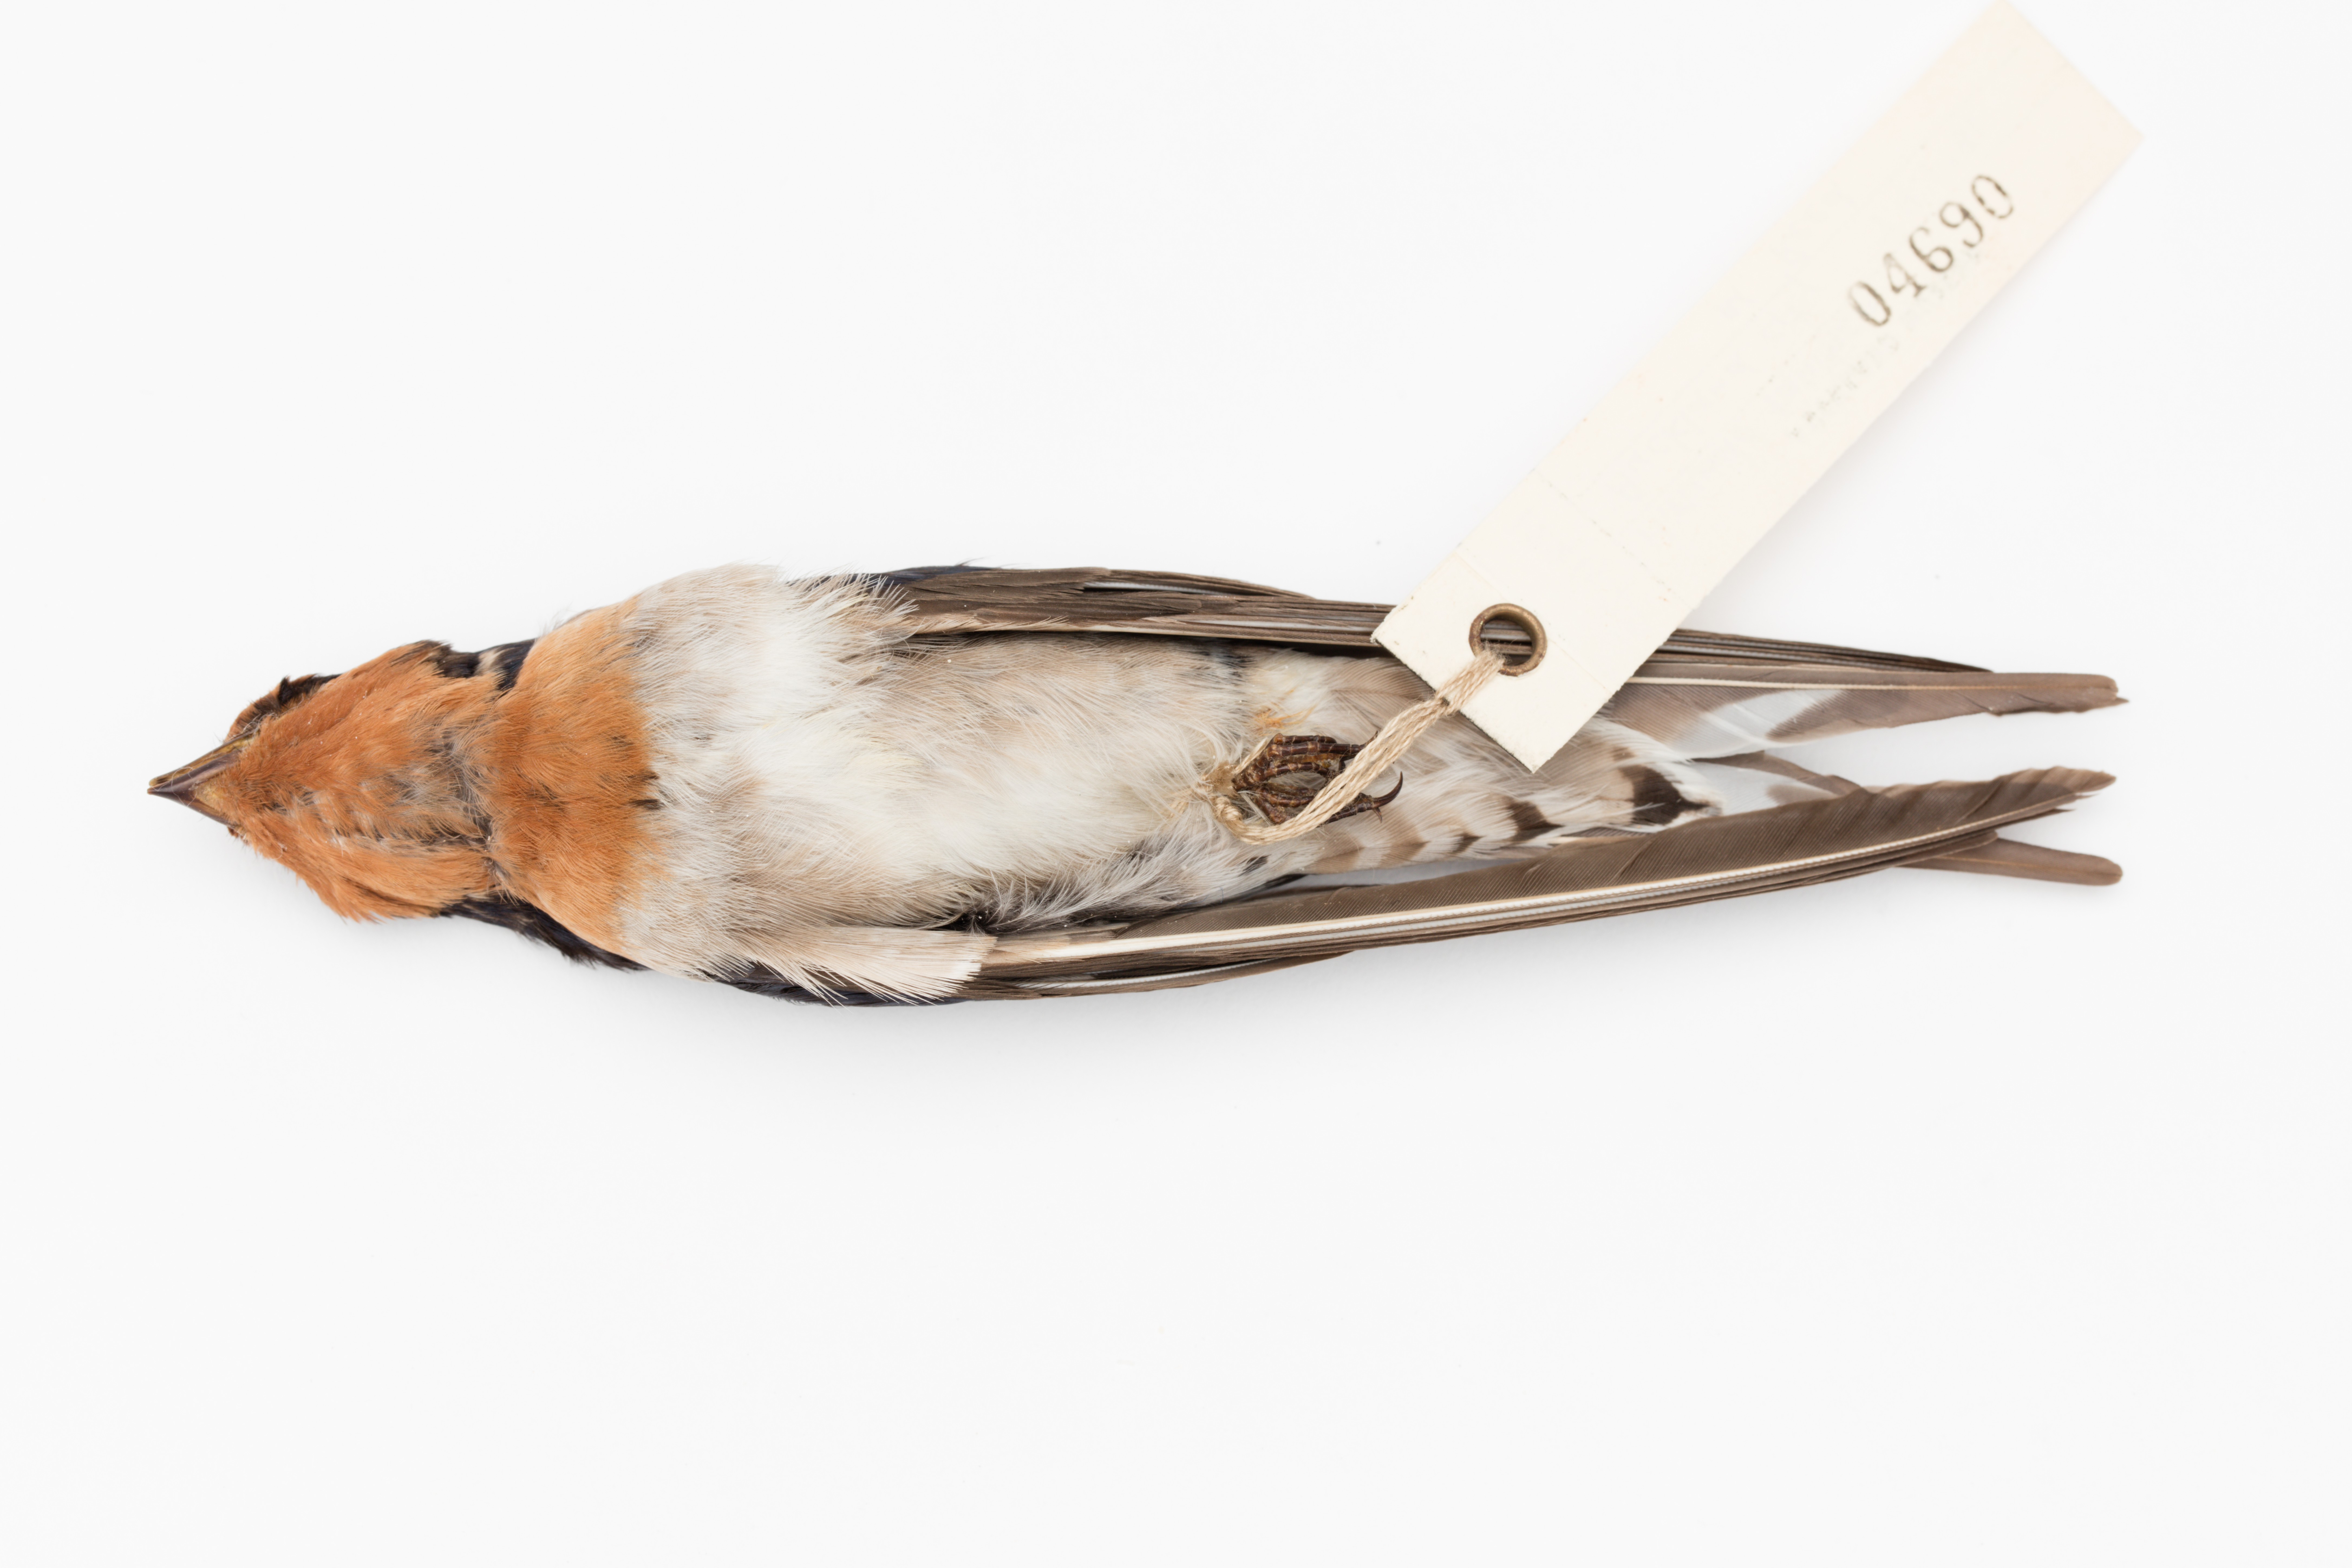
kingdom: Animalia
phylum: Chordata
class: Aves
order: Passeriformes
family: Hirundinidae
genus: Hirundo
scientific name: Hirundo neoxena
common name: Welcome swallow
